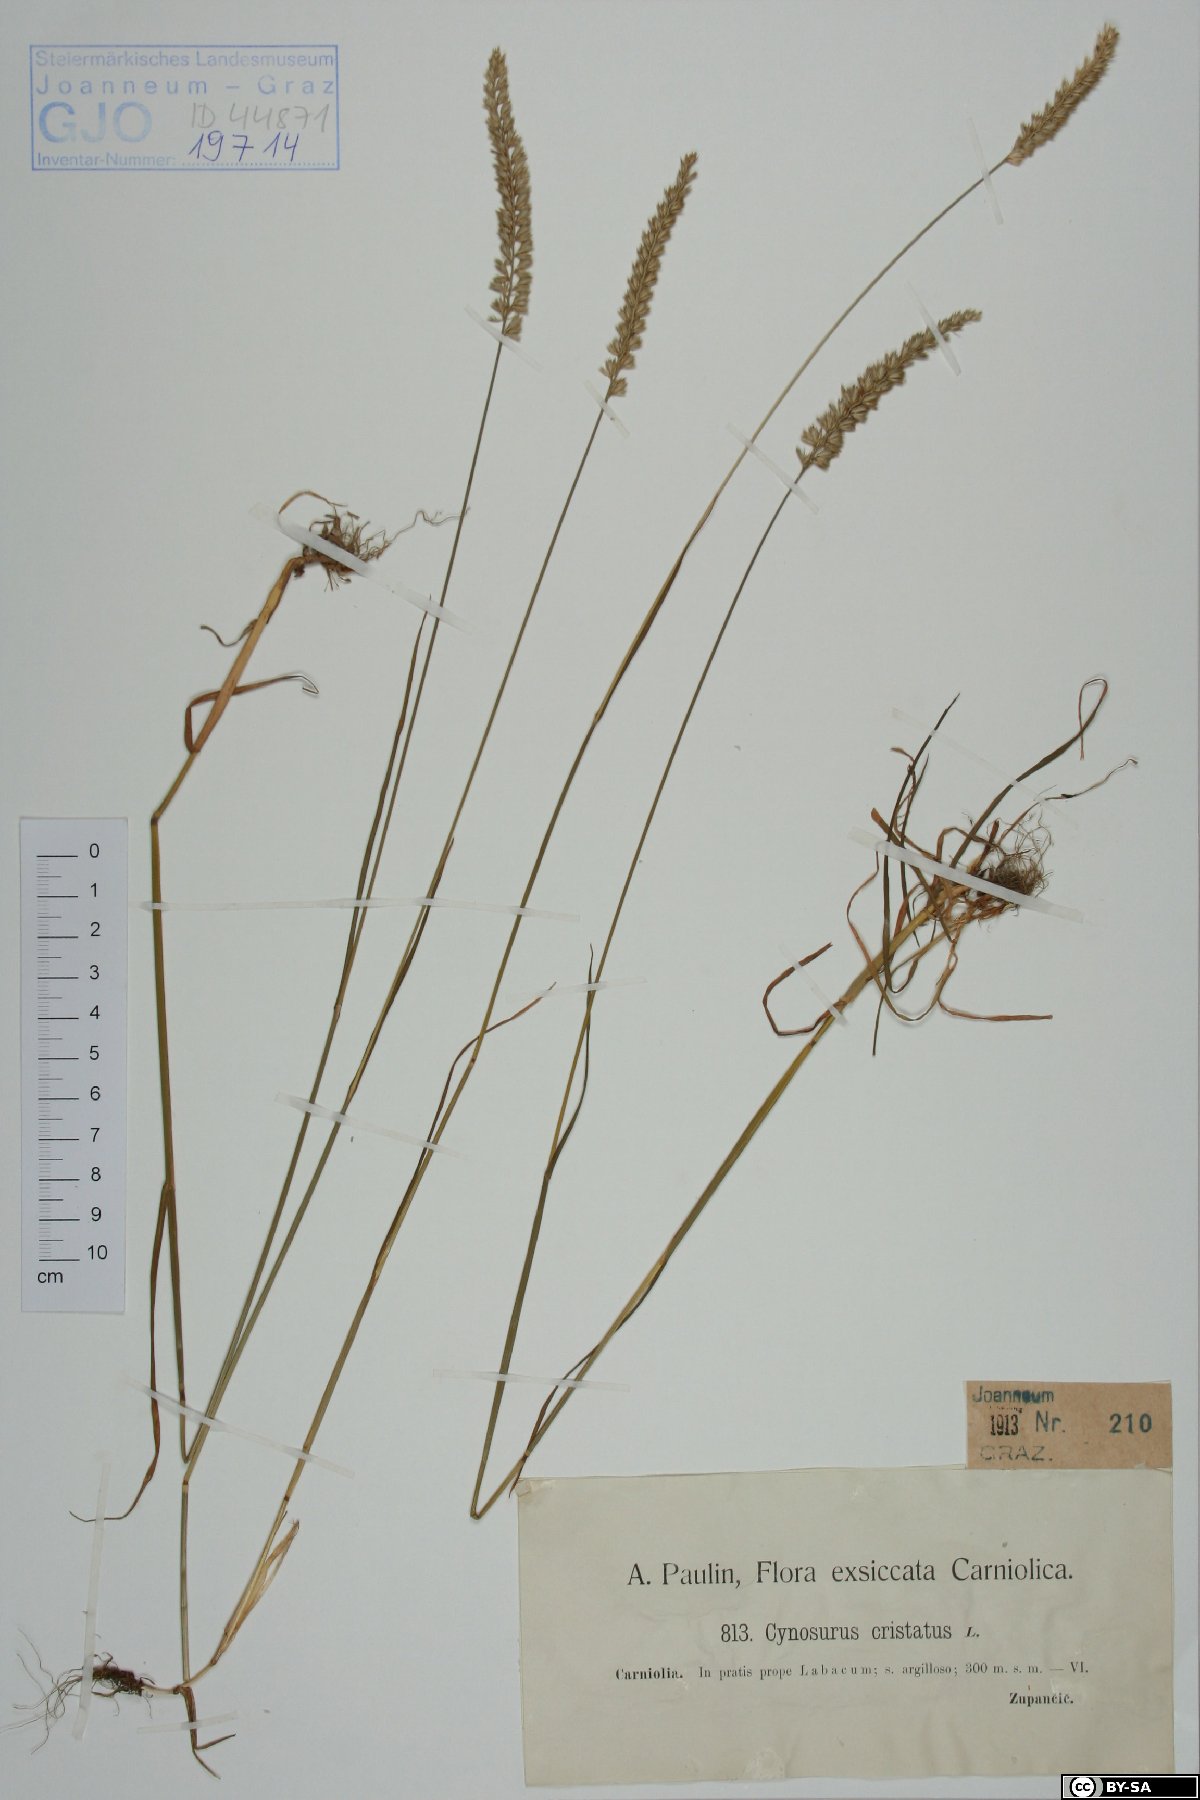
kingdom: Plantae
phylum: Tracheophyta
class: Liliopsida
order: Poales
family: Poaceae
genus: Cynosurus
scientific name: Cynosurus cristatus
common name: Crested dog's-tail
